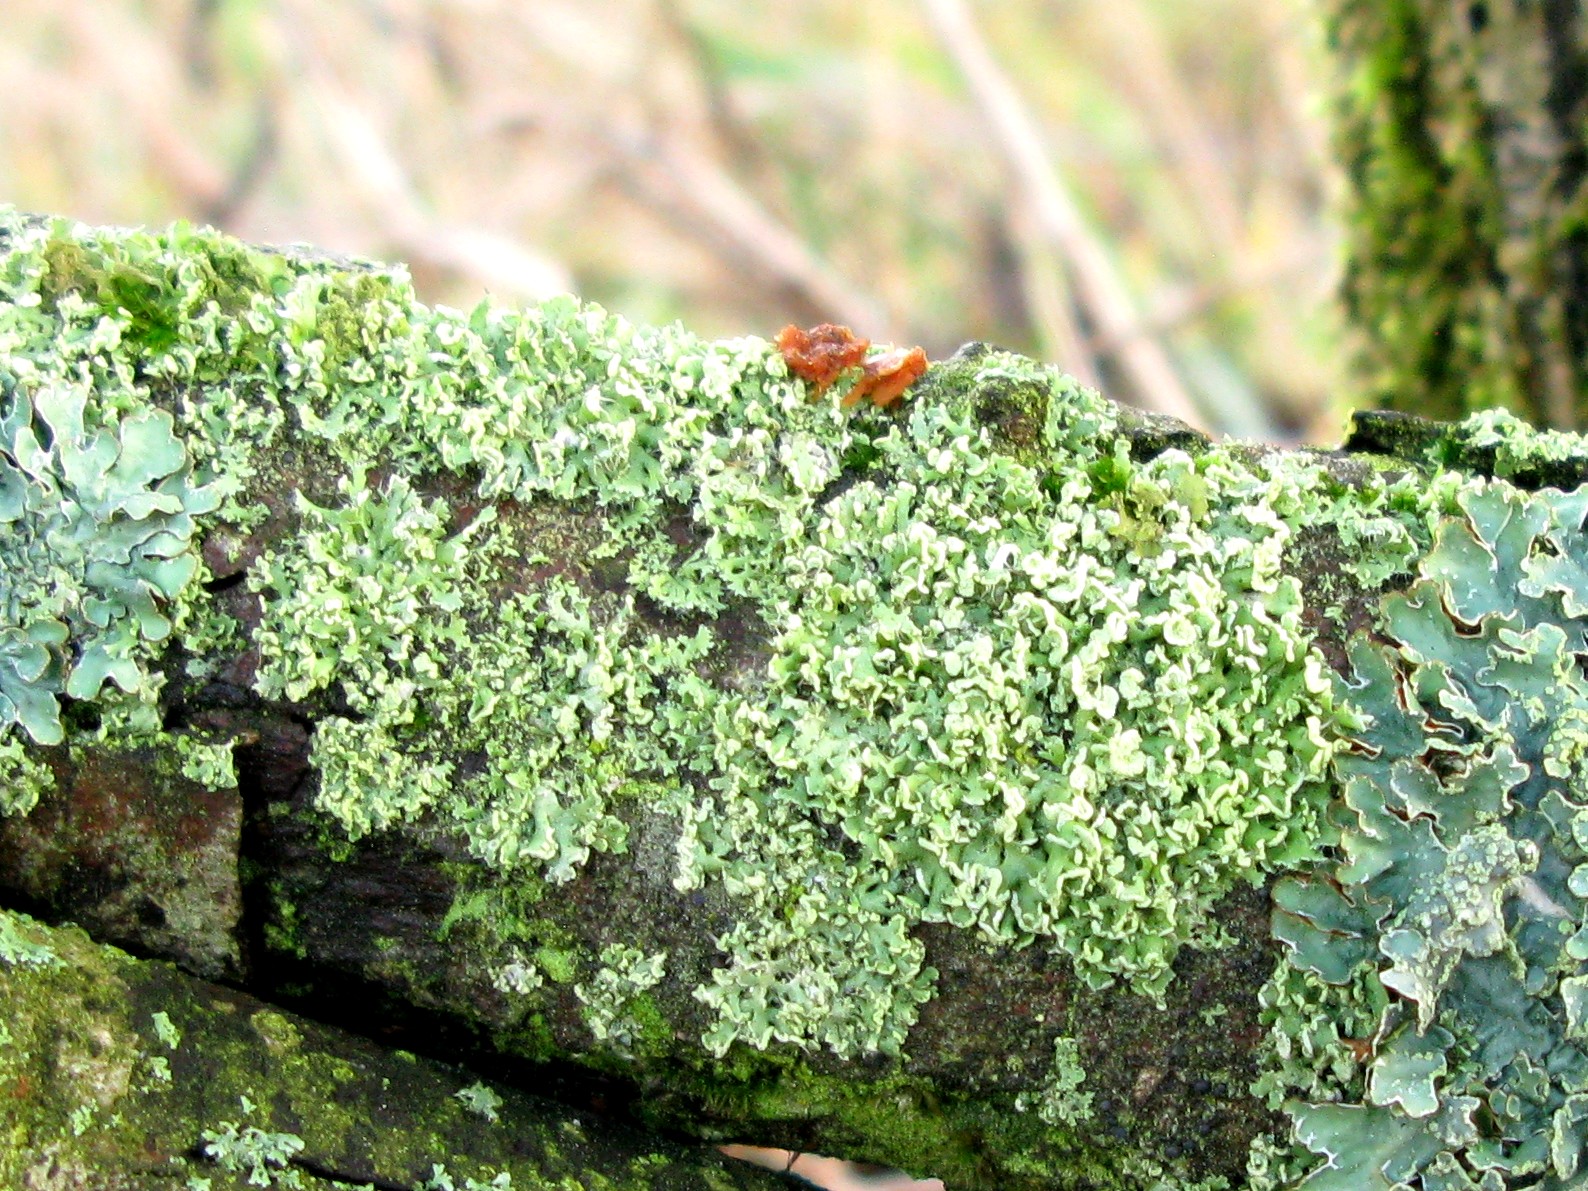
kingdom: Fungi
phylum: Ascomycota
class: Lecanoromycetes
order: Caliciales
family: Physciaceae
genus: Physcia
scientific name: Physcia tenella
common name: spæd rosetlav
